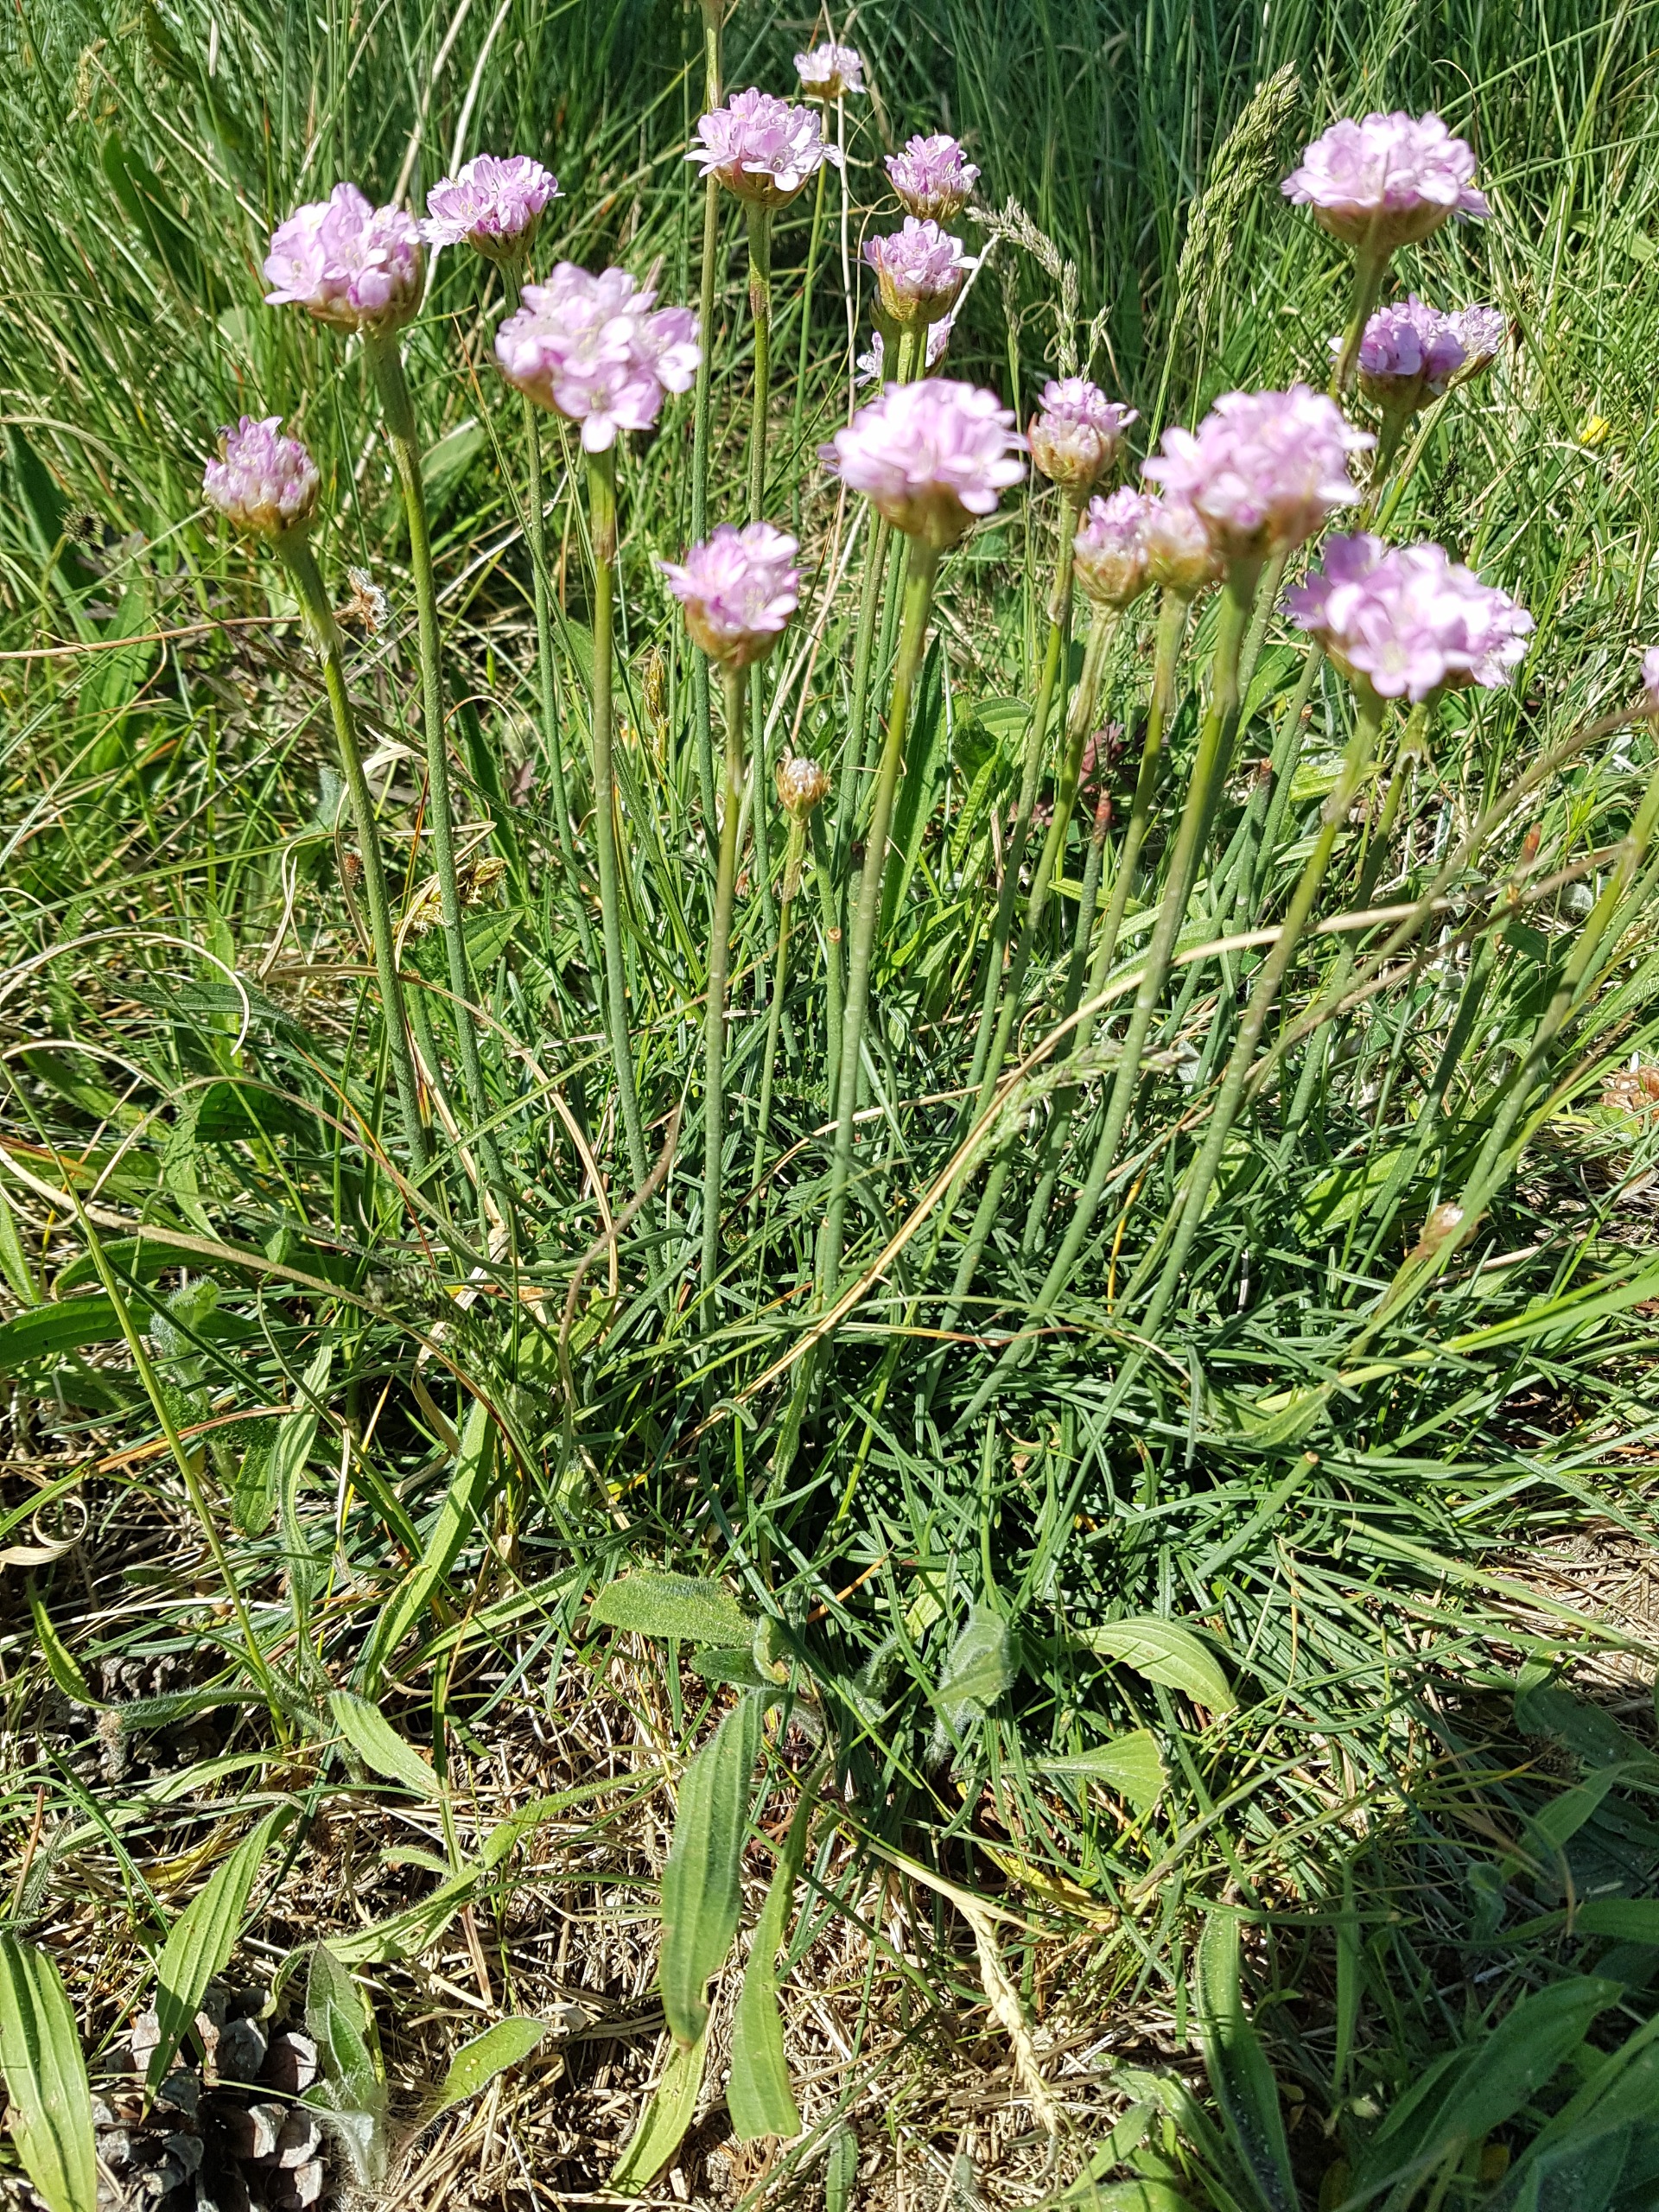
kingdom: Plantae
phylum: Tracheophyta
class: Magnoliopsida
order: Caryophyllales
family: Plumbaginaceae
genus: Armeria
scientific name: Armeria maritima
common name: Engelskgræs
